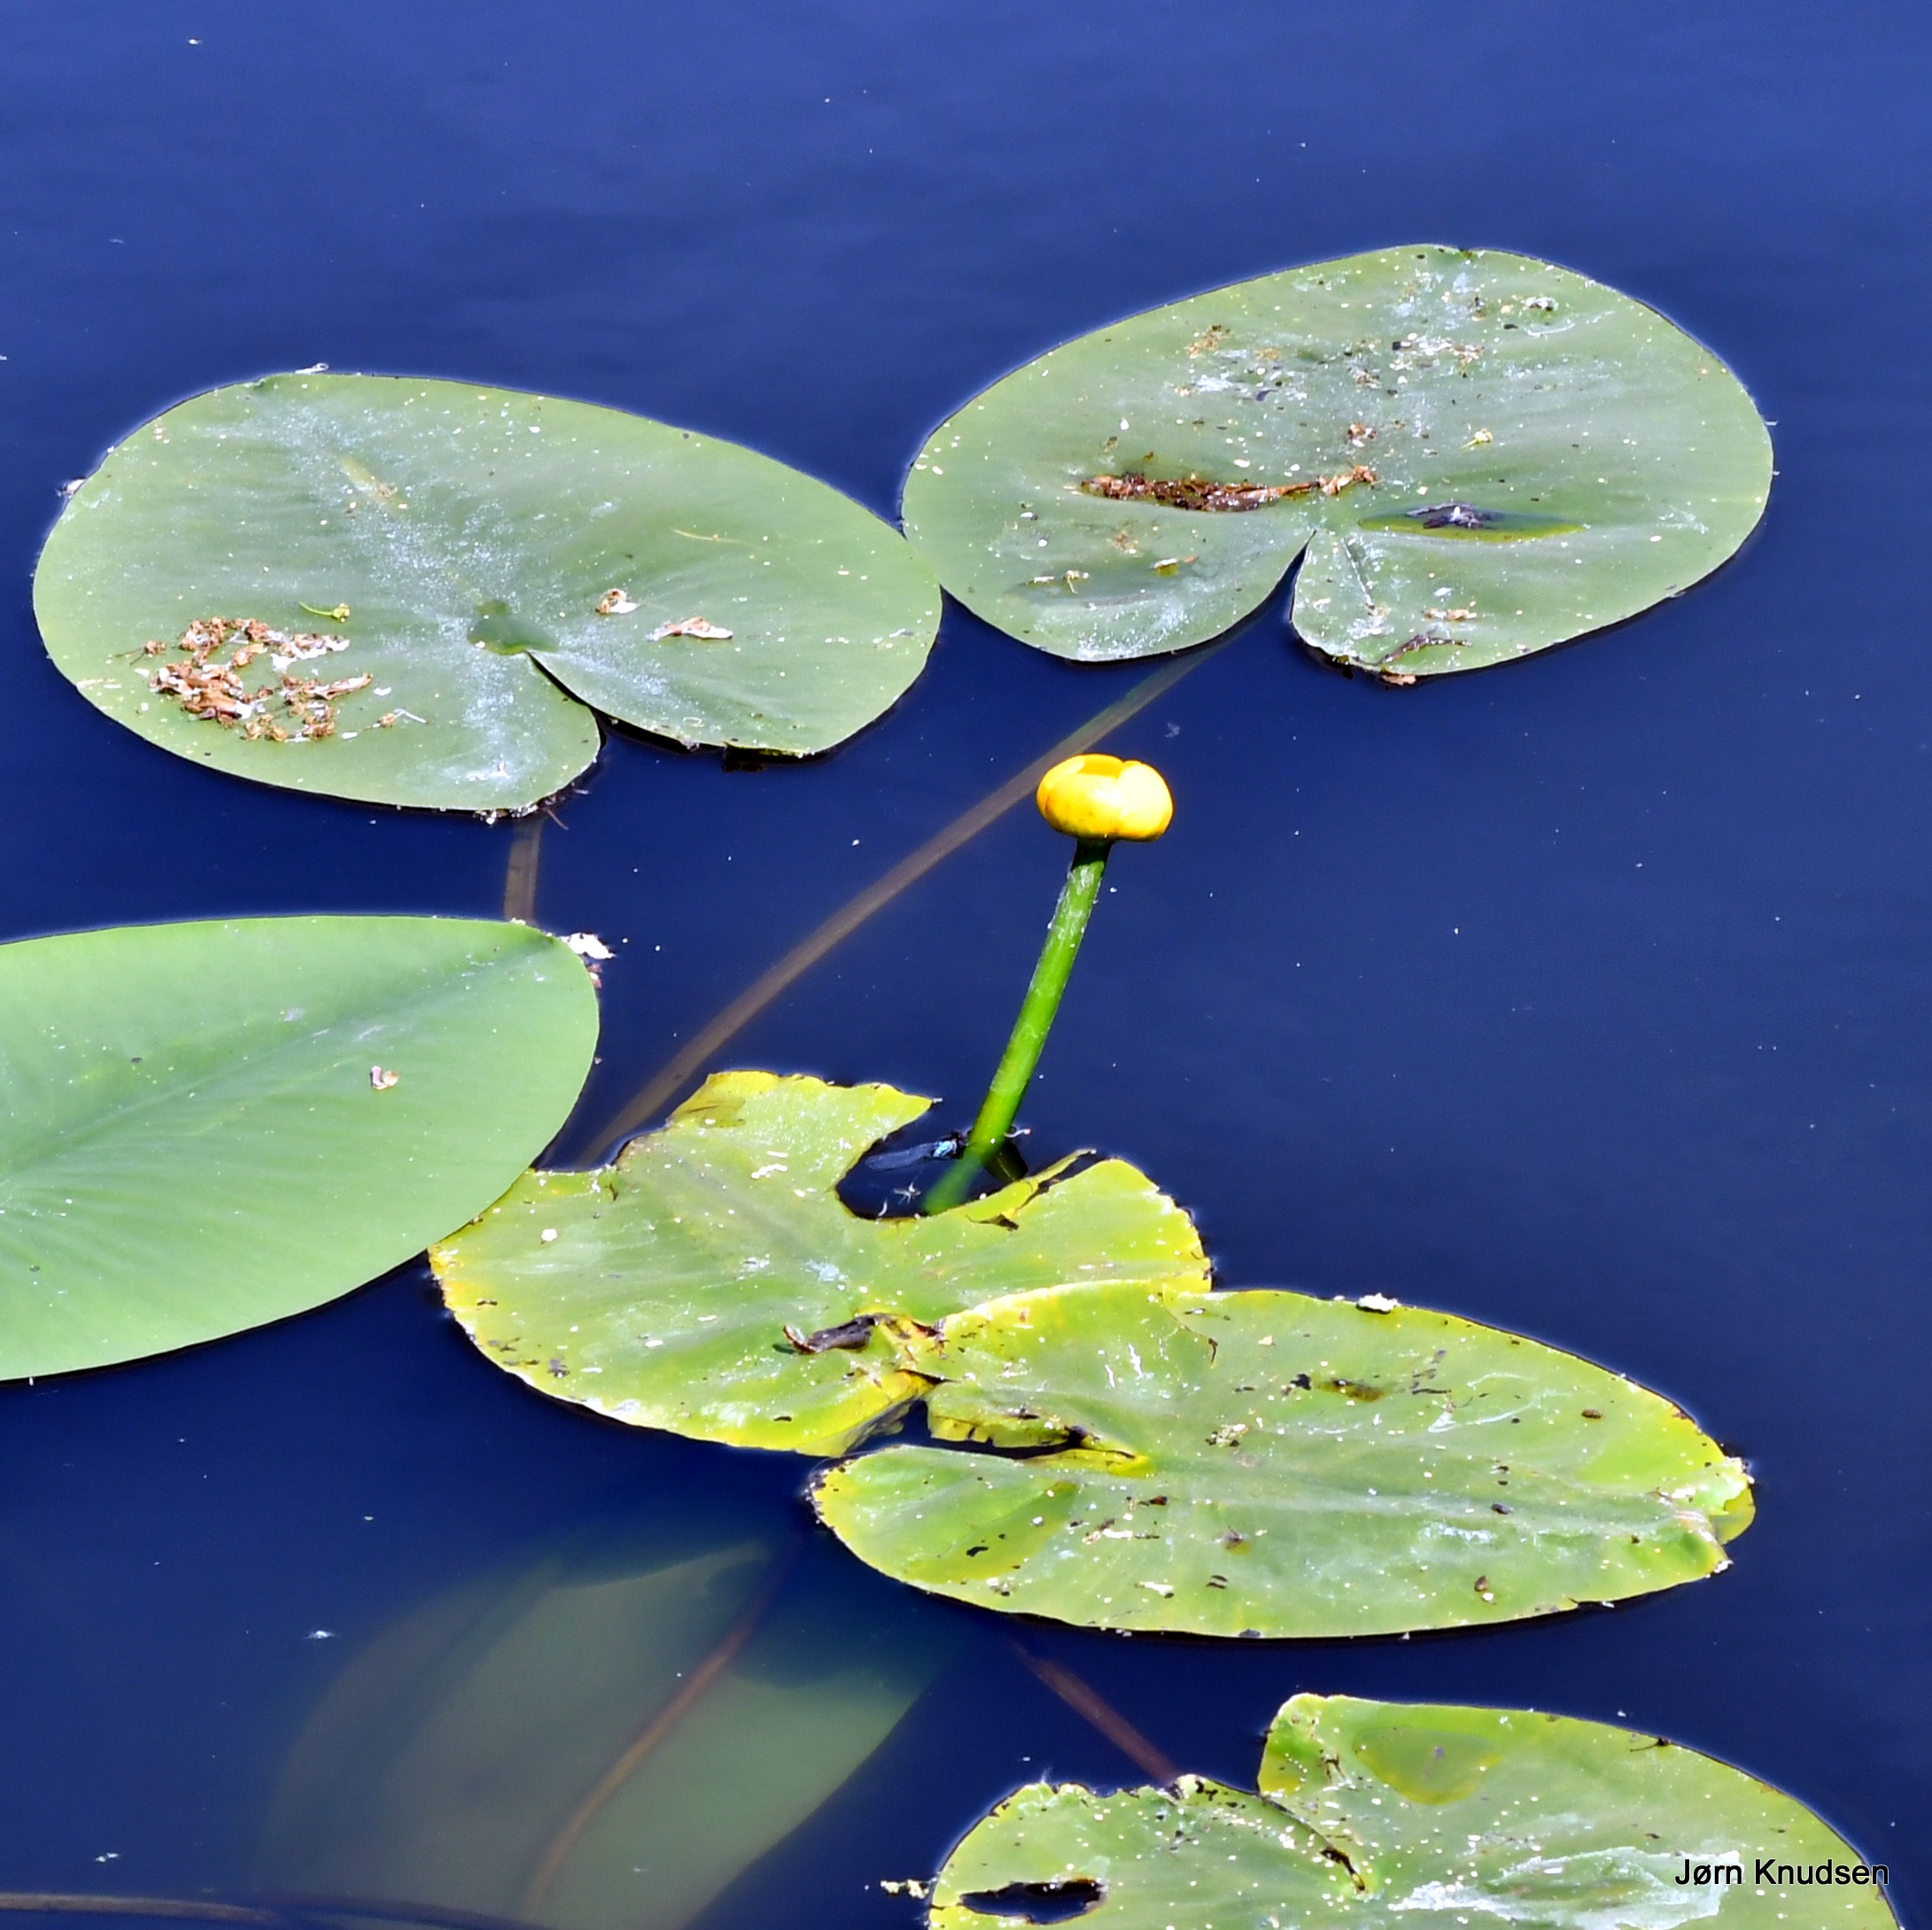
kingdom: Plantae
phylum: Tracheophyta
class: Magnoliopsida
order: Nymphaeales
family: Nymphaeaceae
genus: Nuphar
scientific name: Nuphar lutea
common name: Gul åkande
